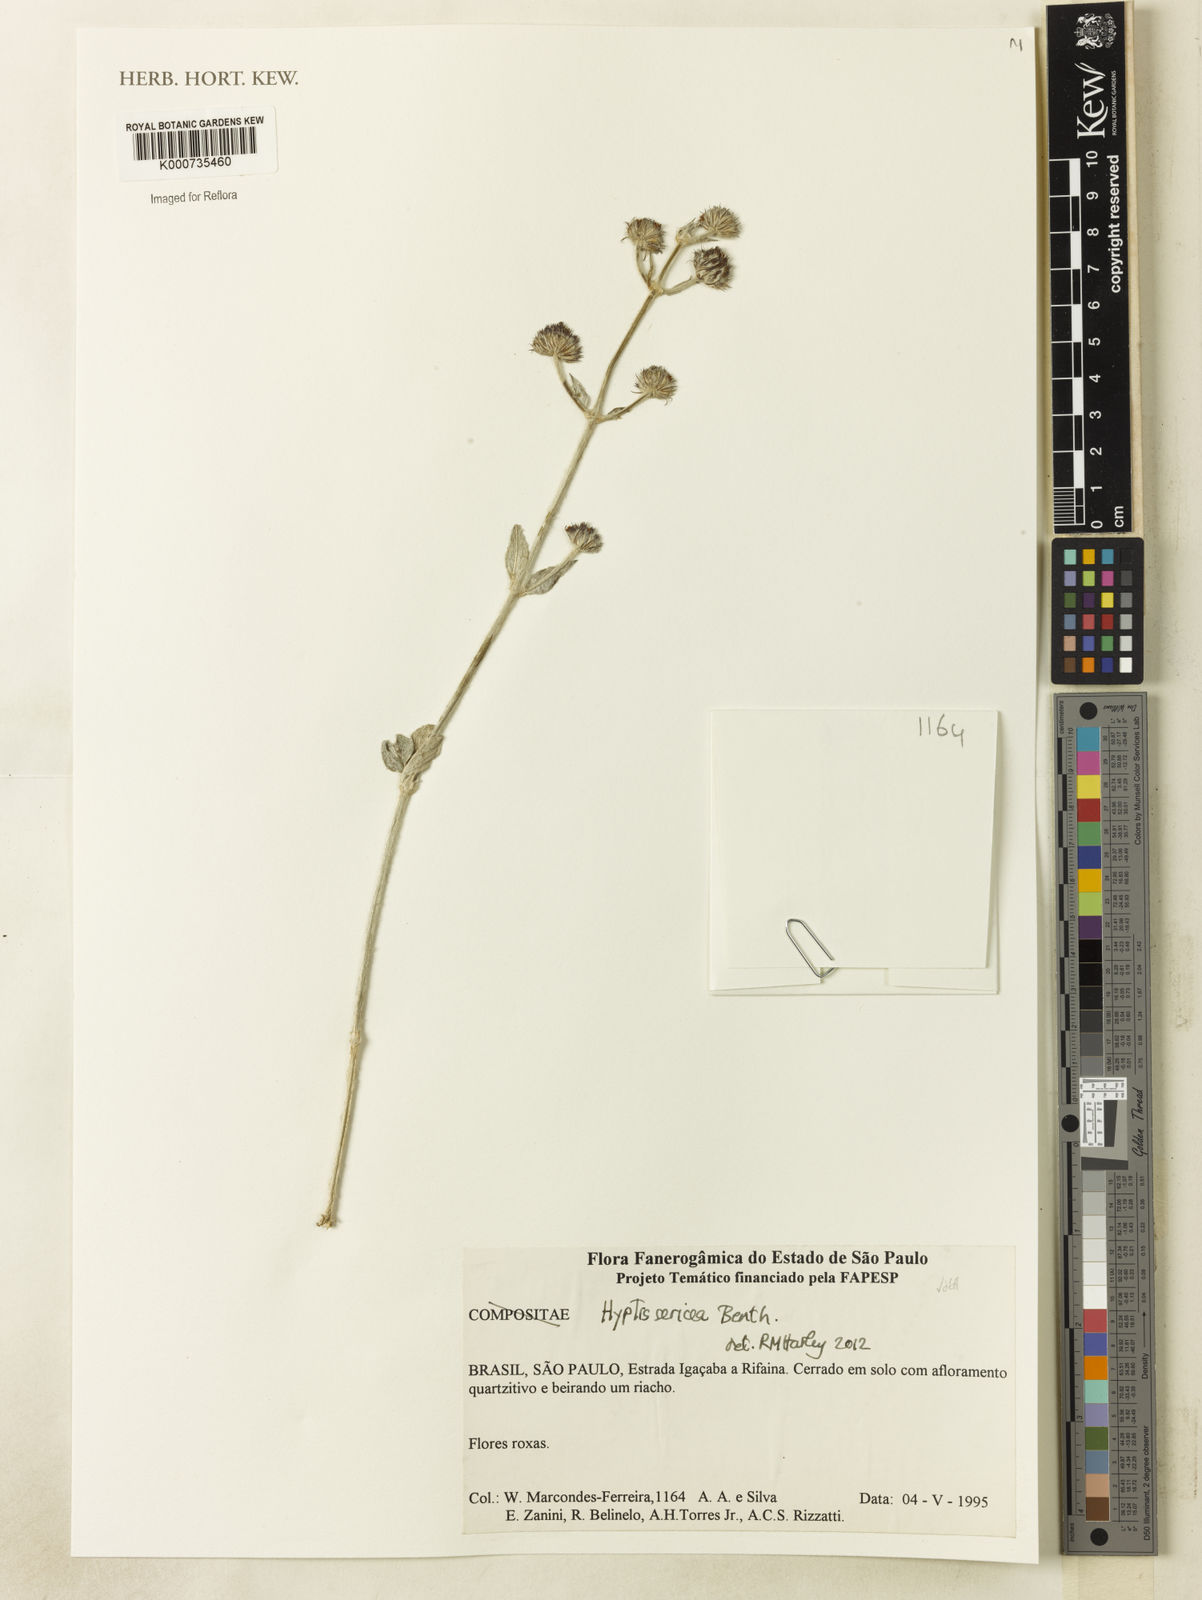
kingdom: Plantae
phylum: Tracheophyta
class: Magnoliopsida
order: Lamiales
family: Lamiaceae
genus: Hyptis
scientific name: Hyptis sericea
